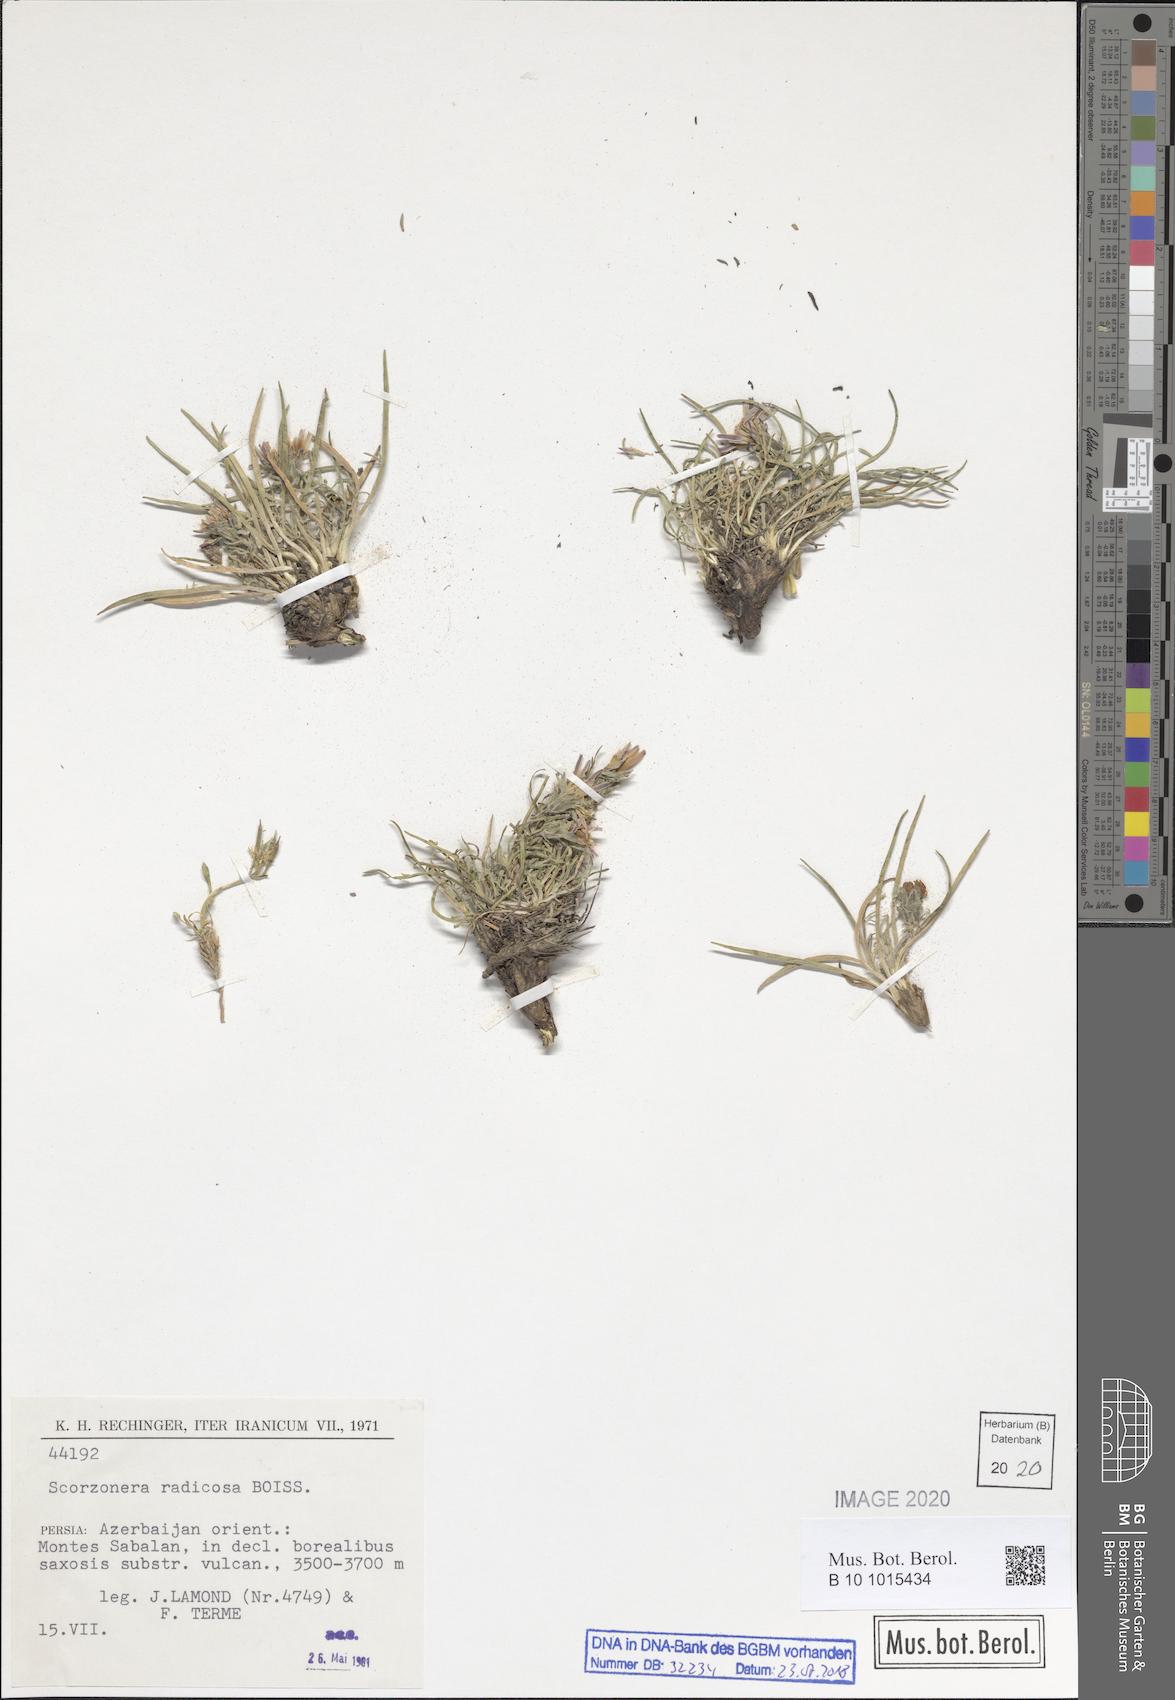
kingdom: Plantae
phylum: Tracheophyta
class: Magnoliopsida
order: Asterales
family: Asteraceae
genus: Scorzonera
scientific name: Scorzonera radicosa
